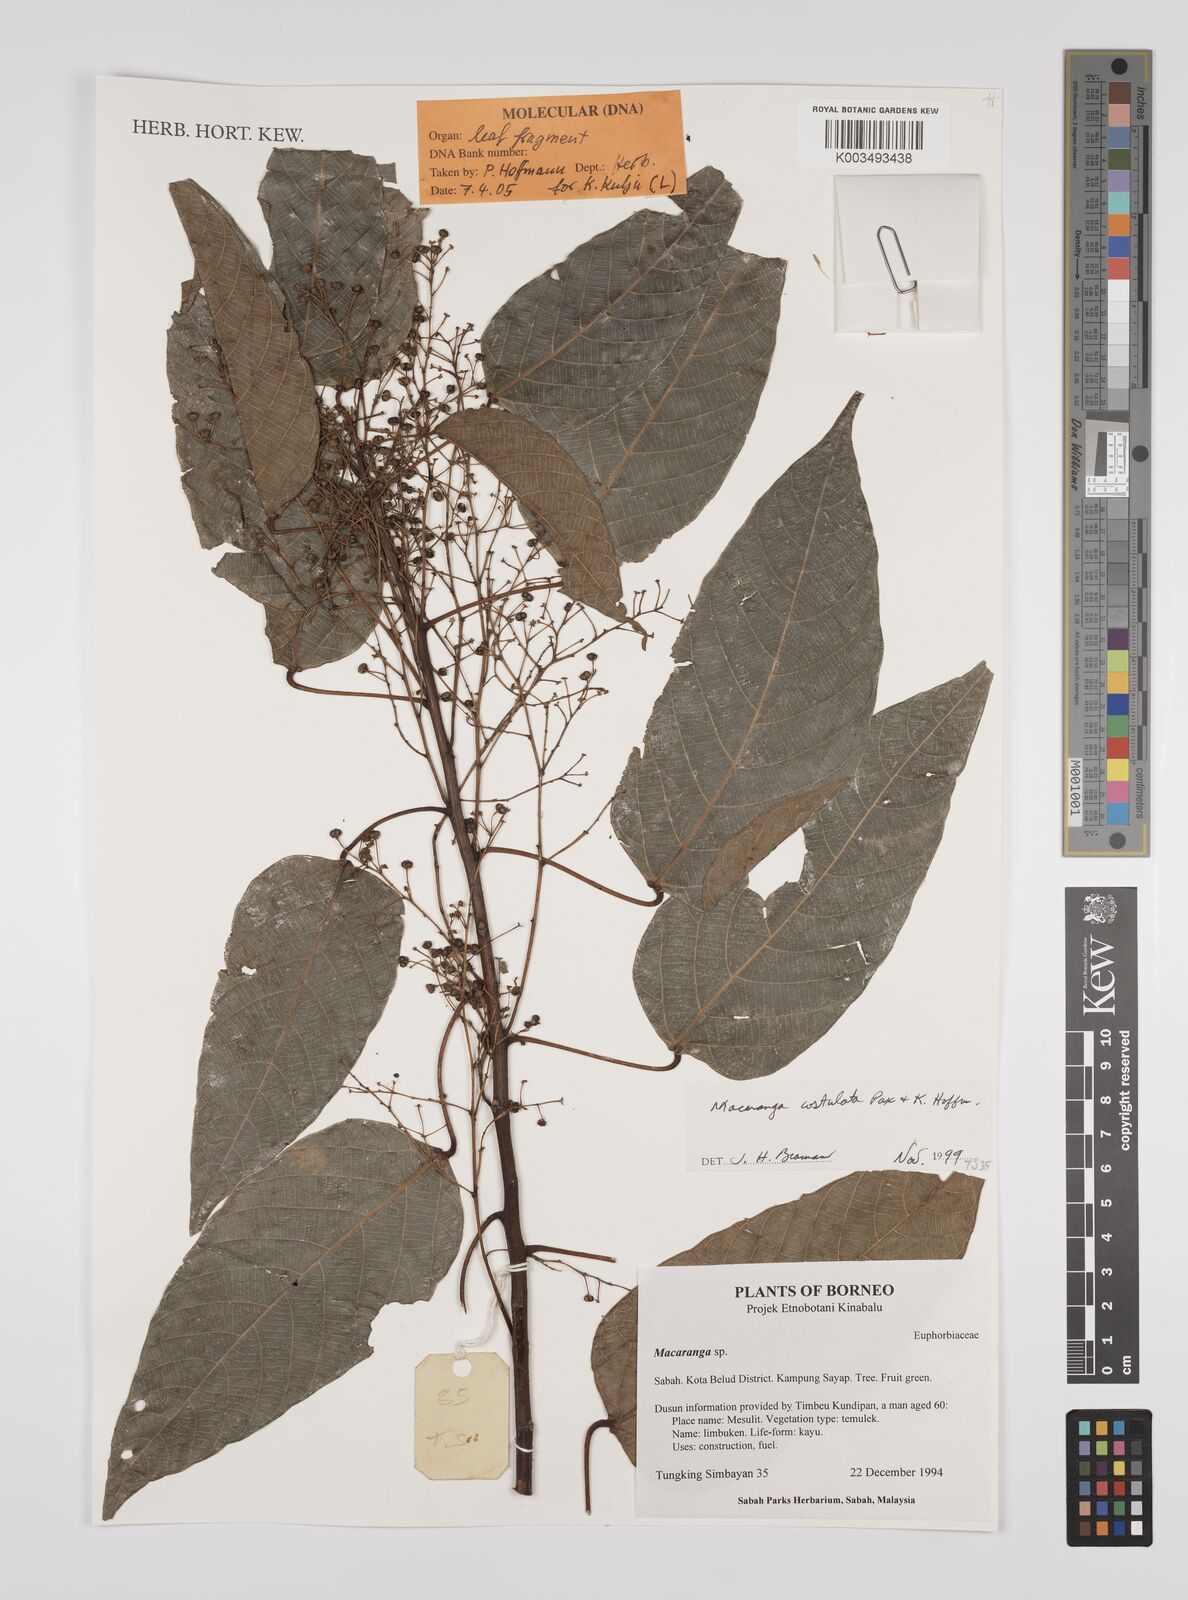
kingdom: Plantae
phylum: Tracheophyta
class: Magnoliopsida
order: Malpighiales
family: Euphorbiaceae
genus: Macaranga
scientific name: Macaranga costulata
